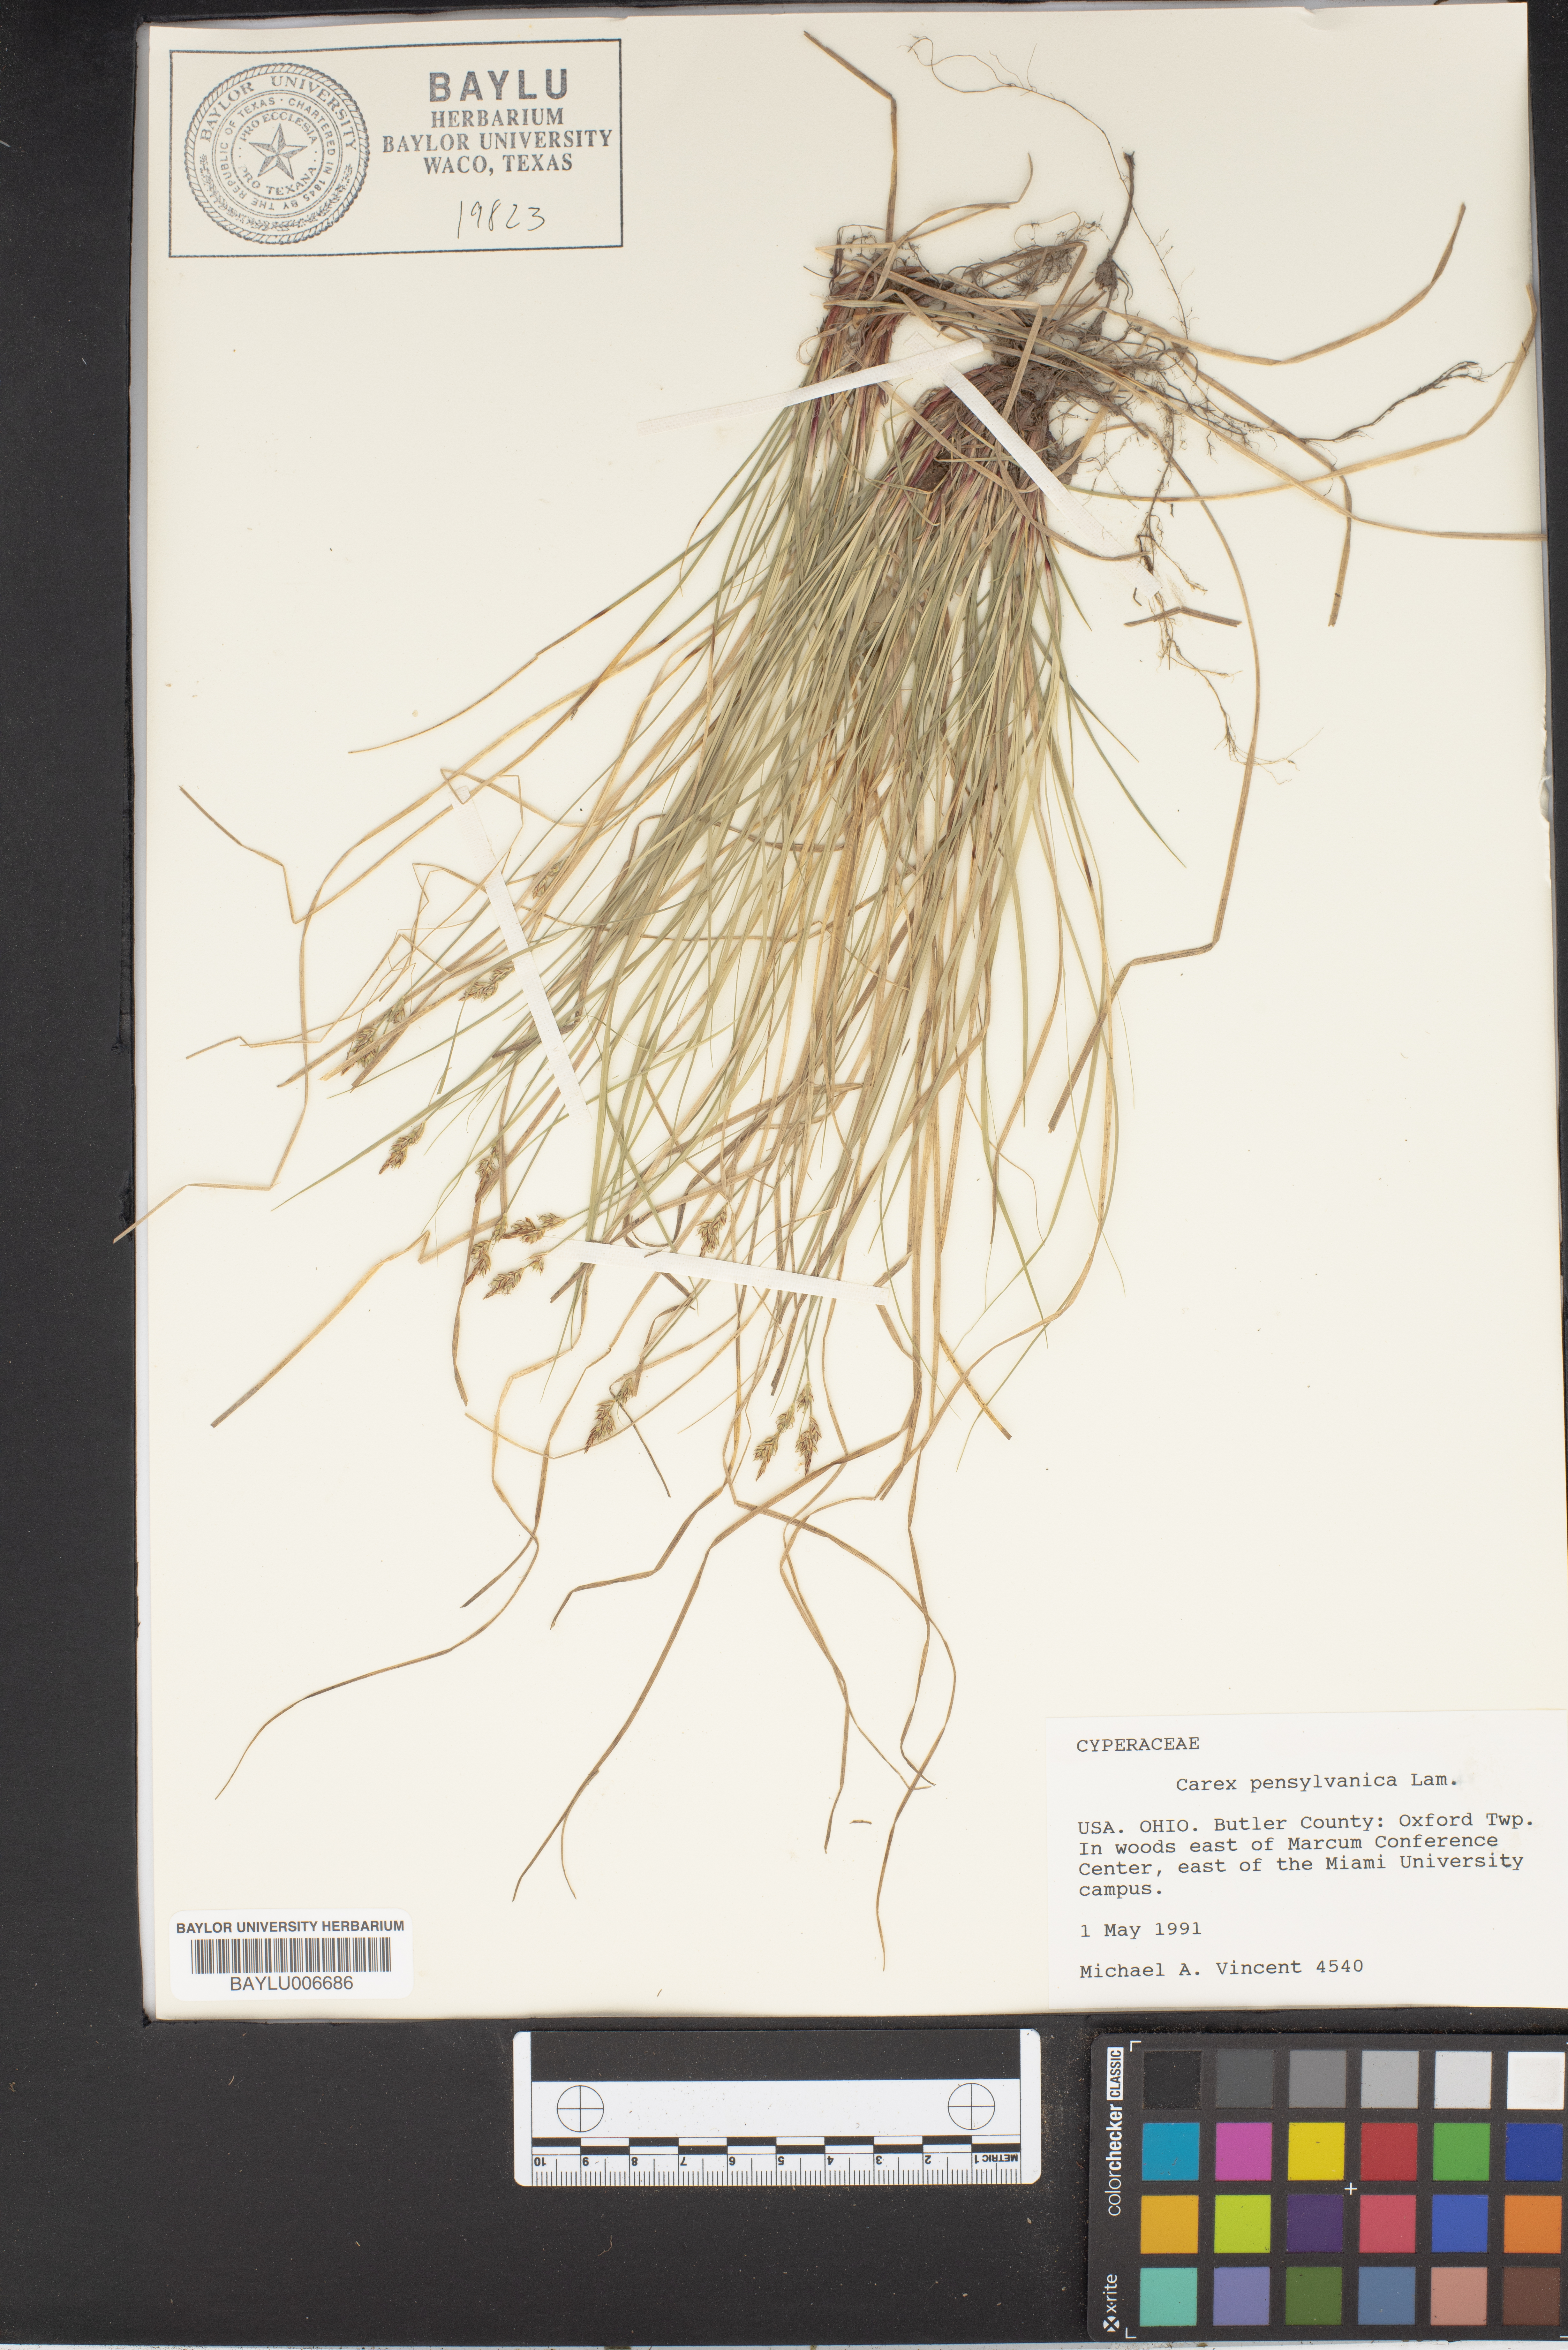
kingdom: Plantae
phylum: Tracheophyta
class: Liliopsida
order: Poales
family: Cyperaceae
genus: Carex
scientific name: Carex albicans
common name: Bellow-beaked sedge
